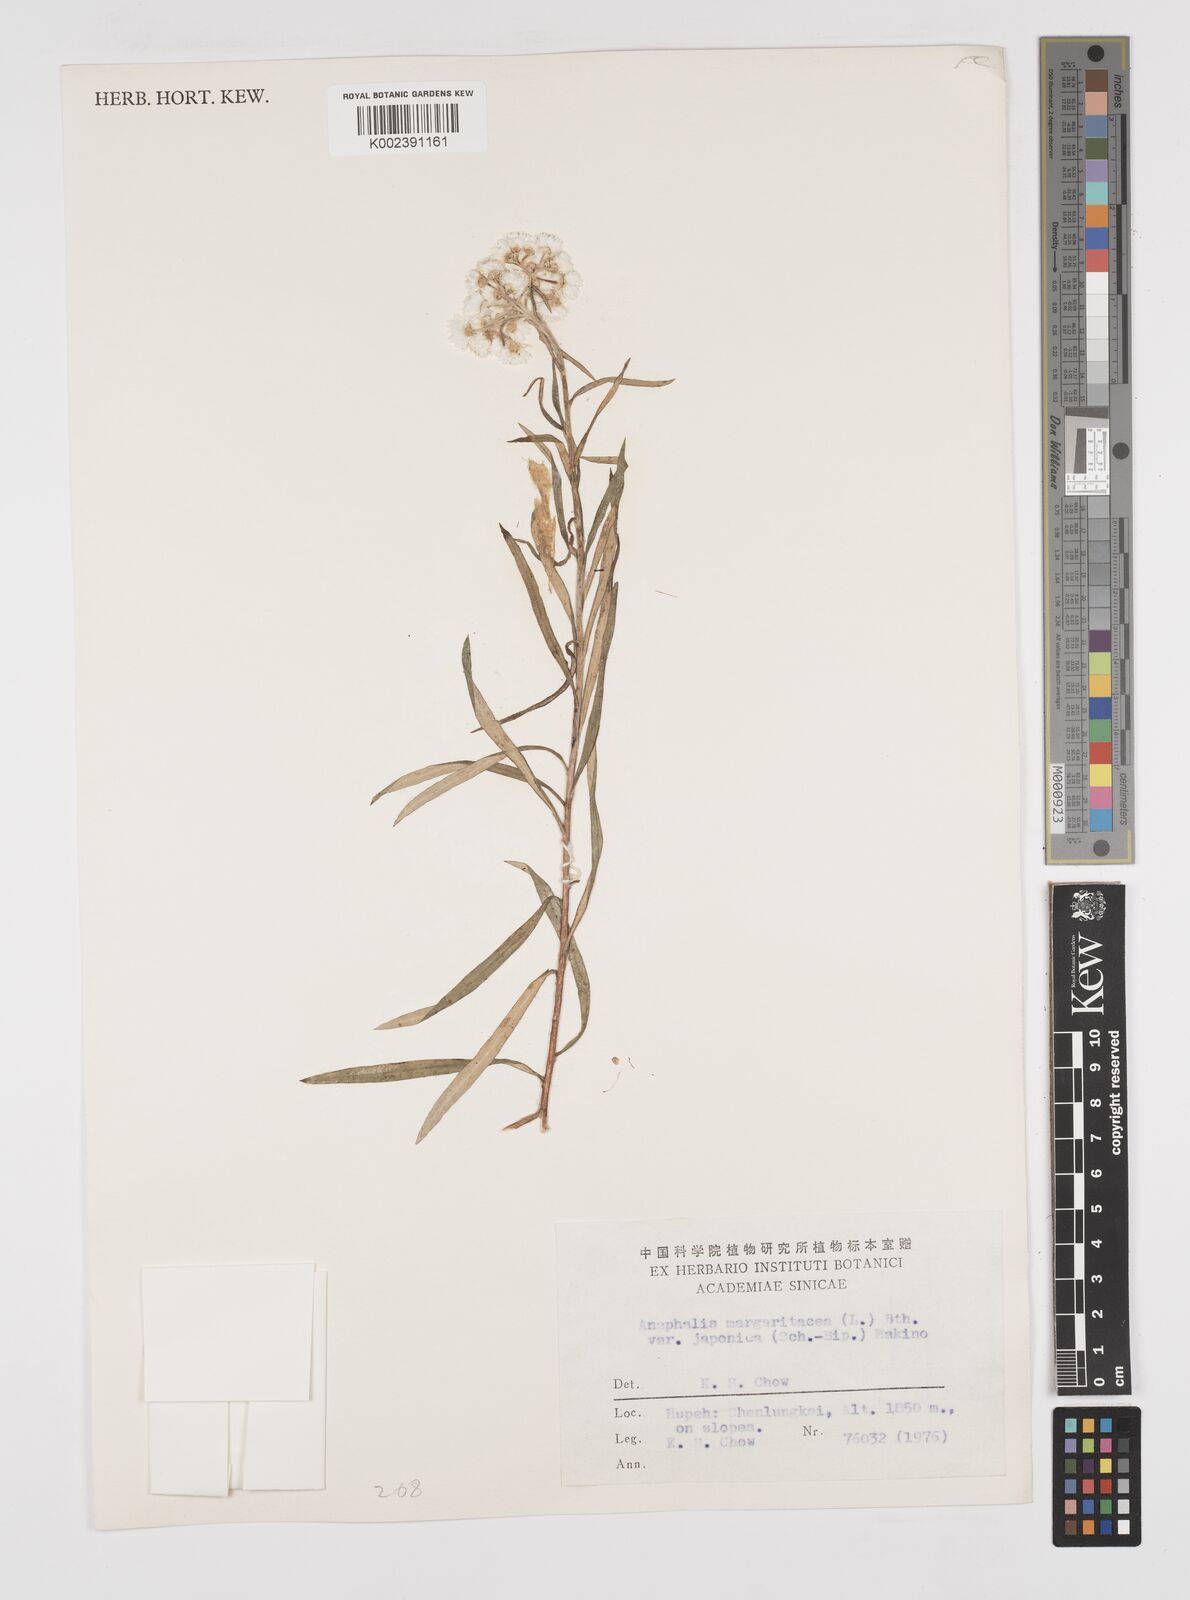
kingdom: Plantae
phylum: Tracheophyta
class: Magnoliopsida
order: Asterales
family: Asteraceae
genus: Anaphalis
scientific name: Anaphalis margaritacea
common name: Pearly everlasting
